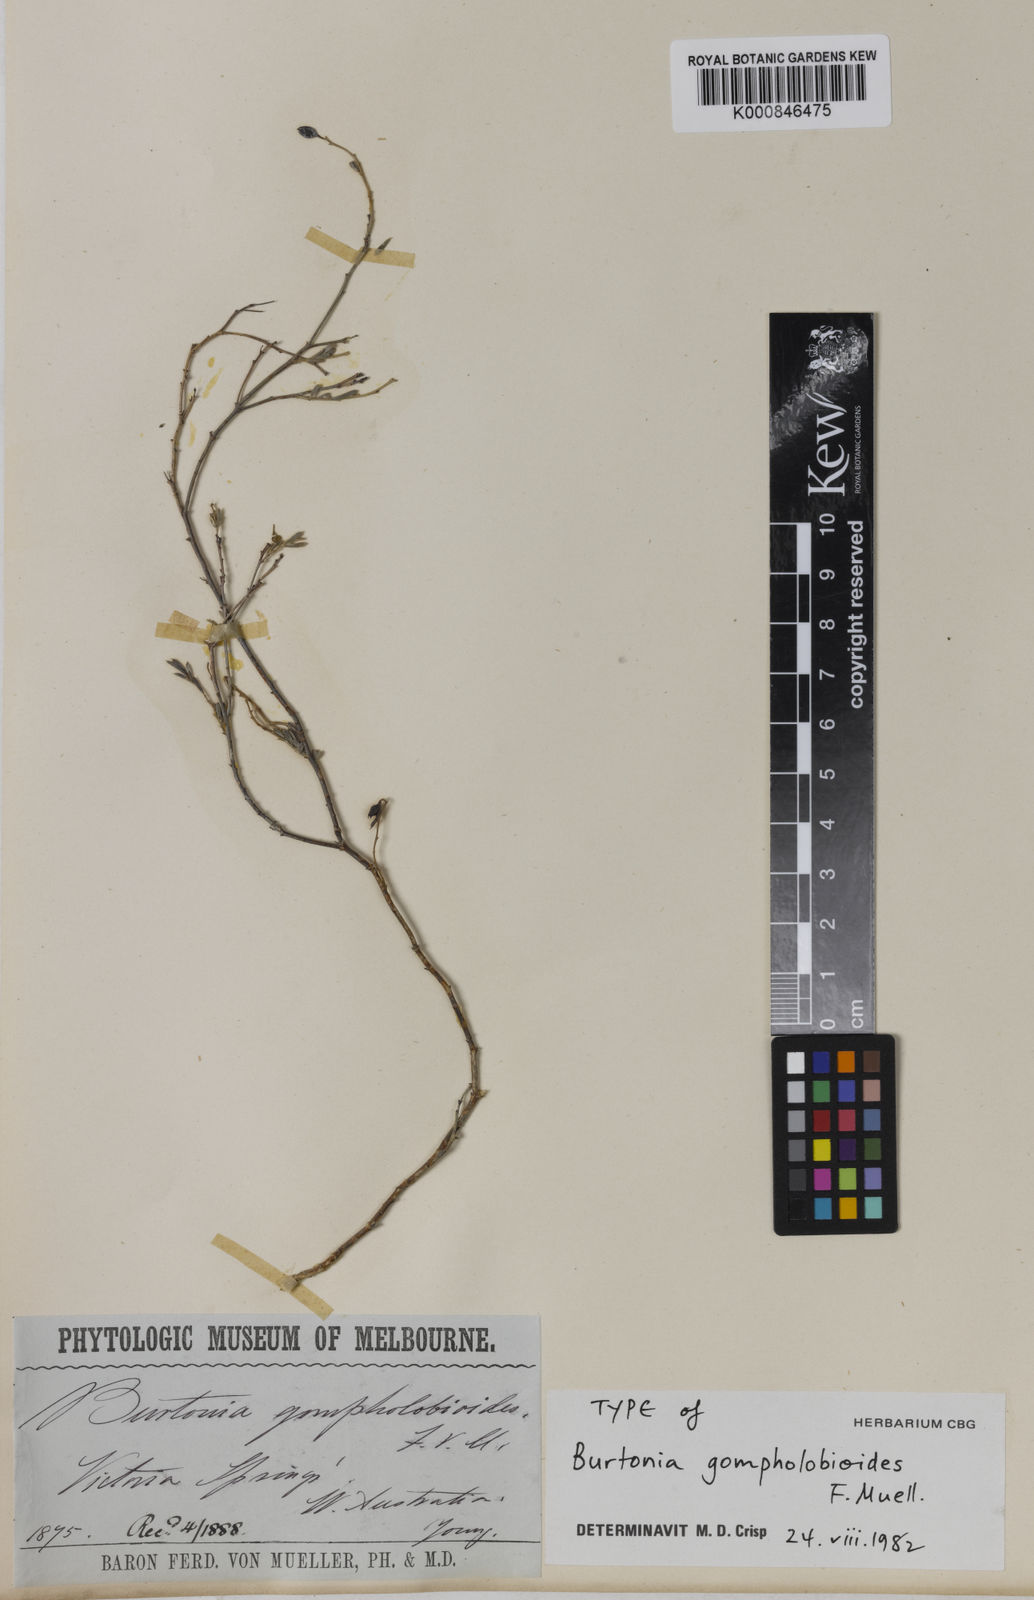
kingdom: Plantae
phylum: Tracheophyta
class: Magnoliopsida
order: Fabales
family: Fabaceae
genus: Gompholobium
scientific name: Gompholobium gompholobioides
